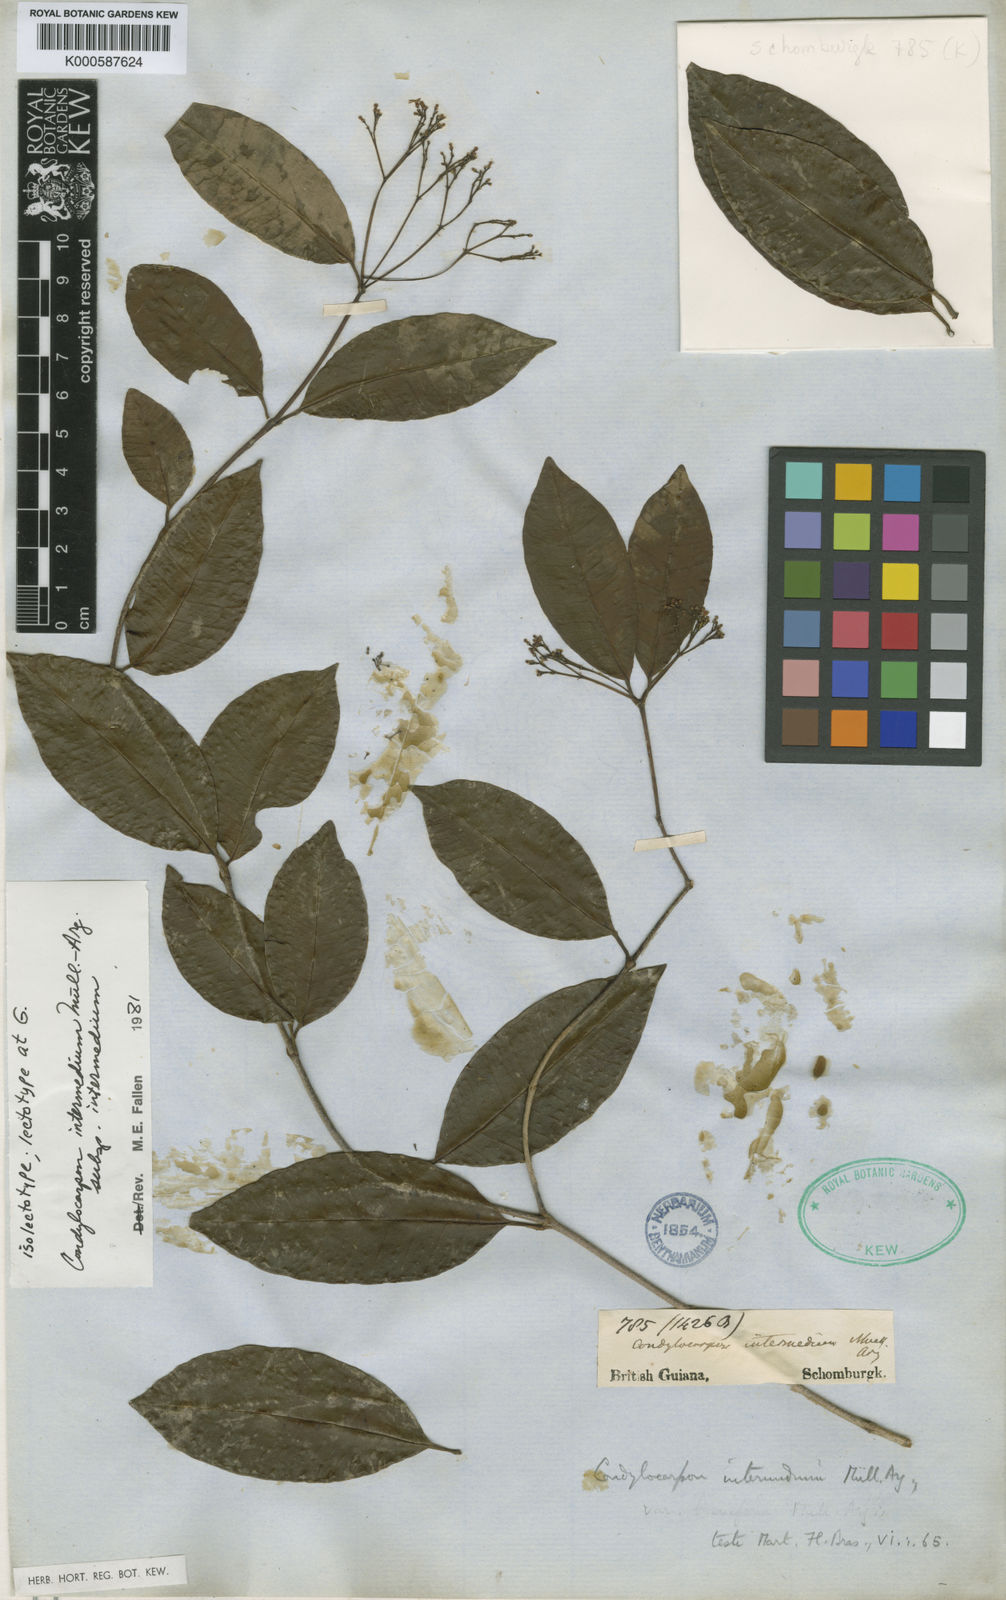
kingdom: Plantae
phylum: Tracheophyta
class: Magnoliopsida
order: Gentianales
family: Apocynaceae
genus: Condylocarpon
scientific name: Condylocarpon intermedium
